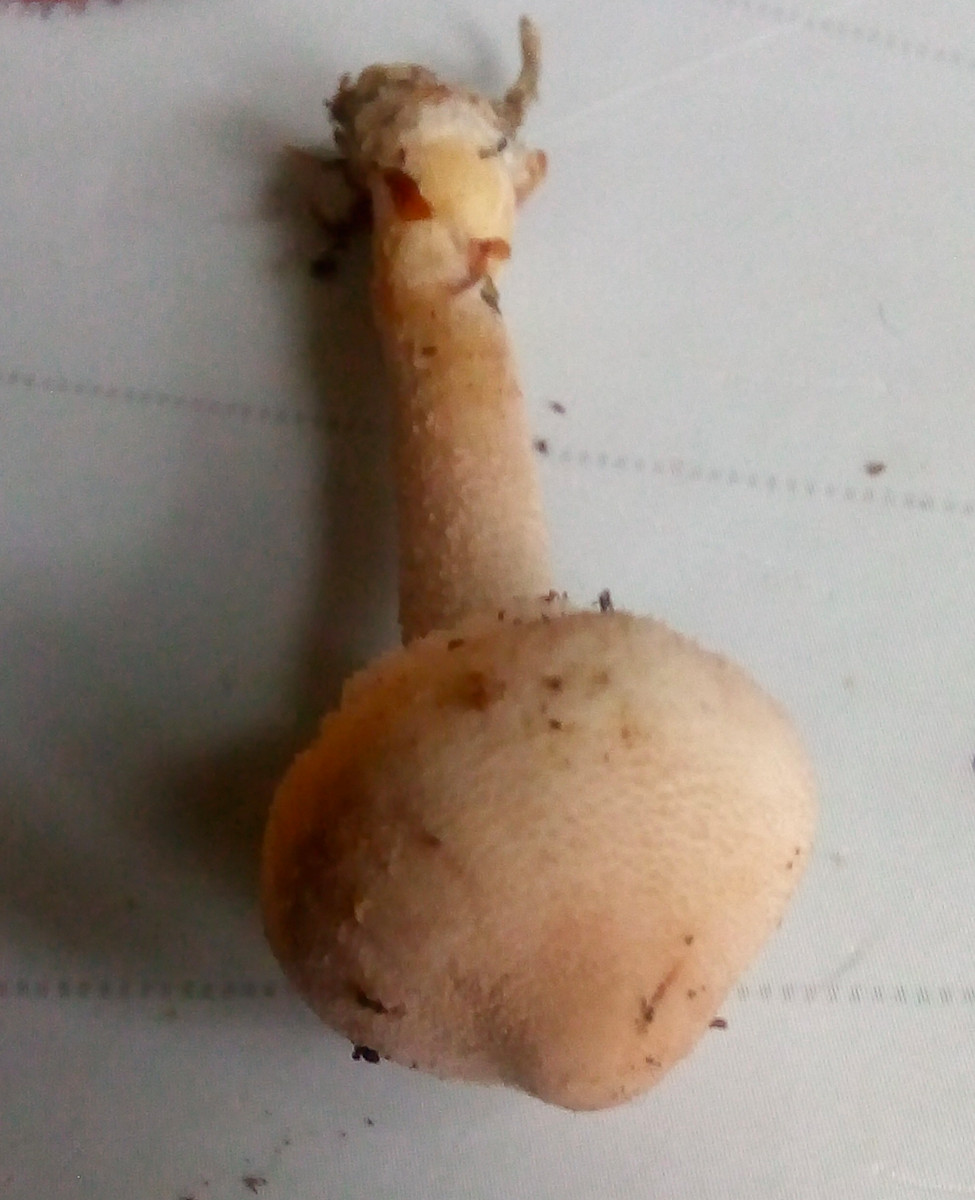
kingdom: Fungi
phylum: Basidiomycota
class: Agaricomycetes
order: Agaricales
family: Tricholomataceae
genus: Cystoderma
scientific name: Cystoderma carcharias
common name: rødgrå grynhat
